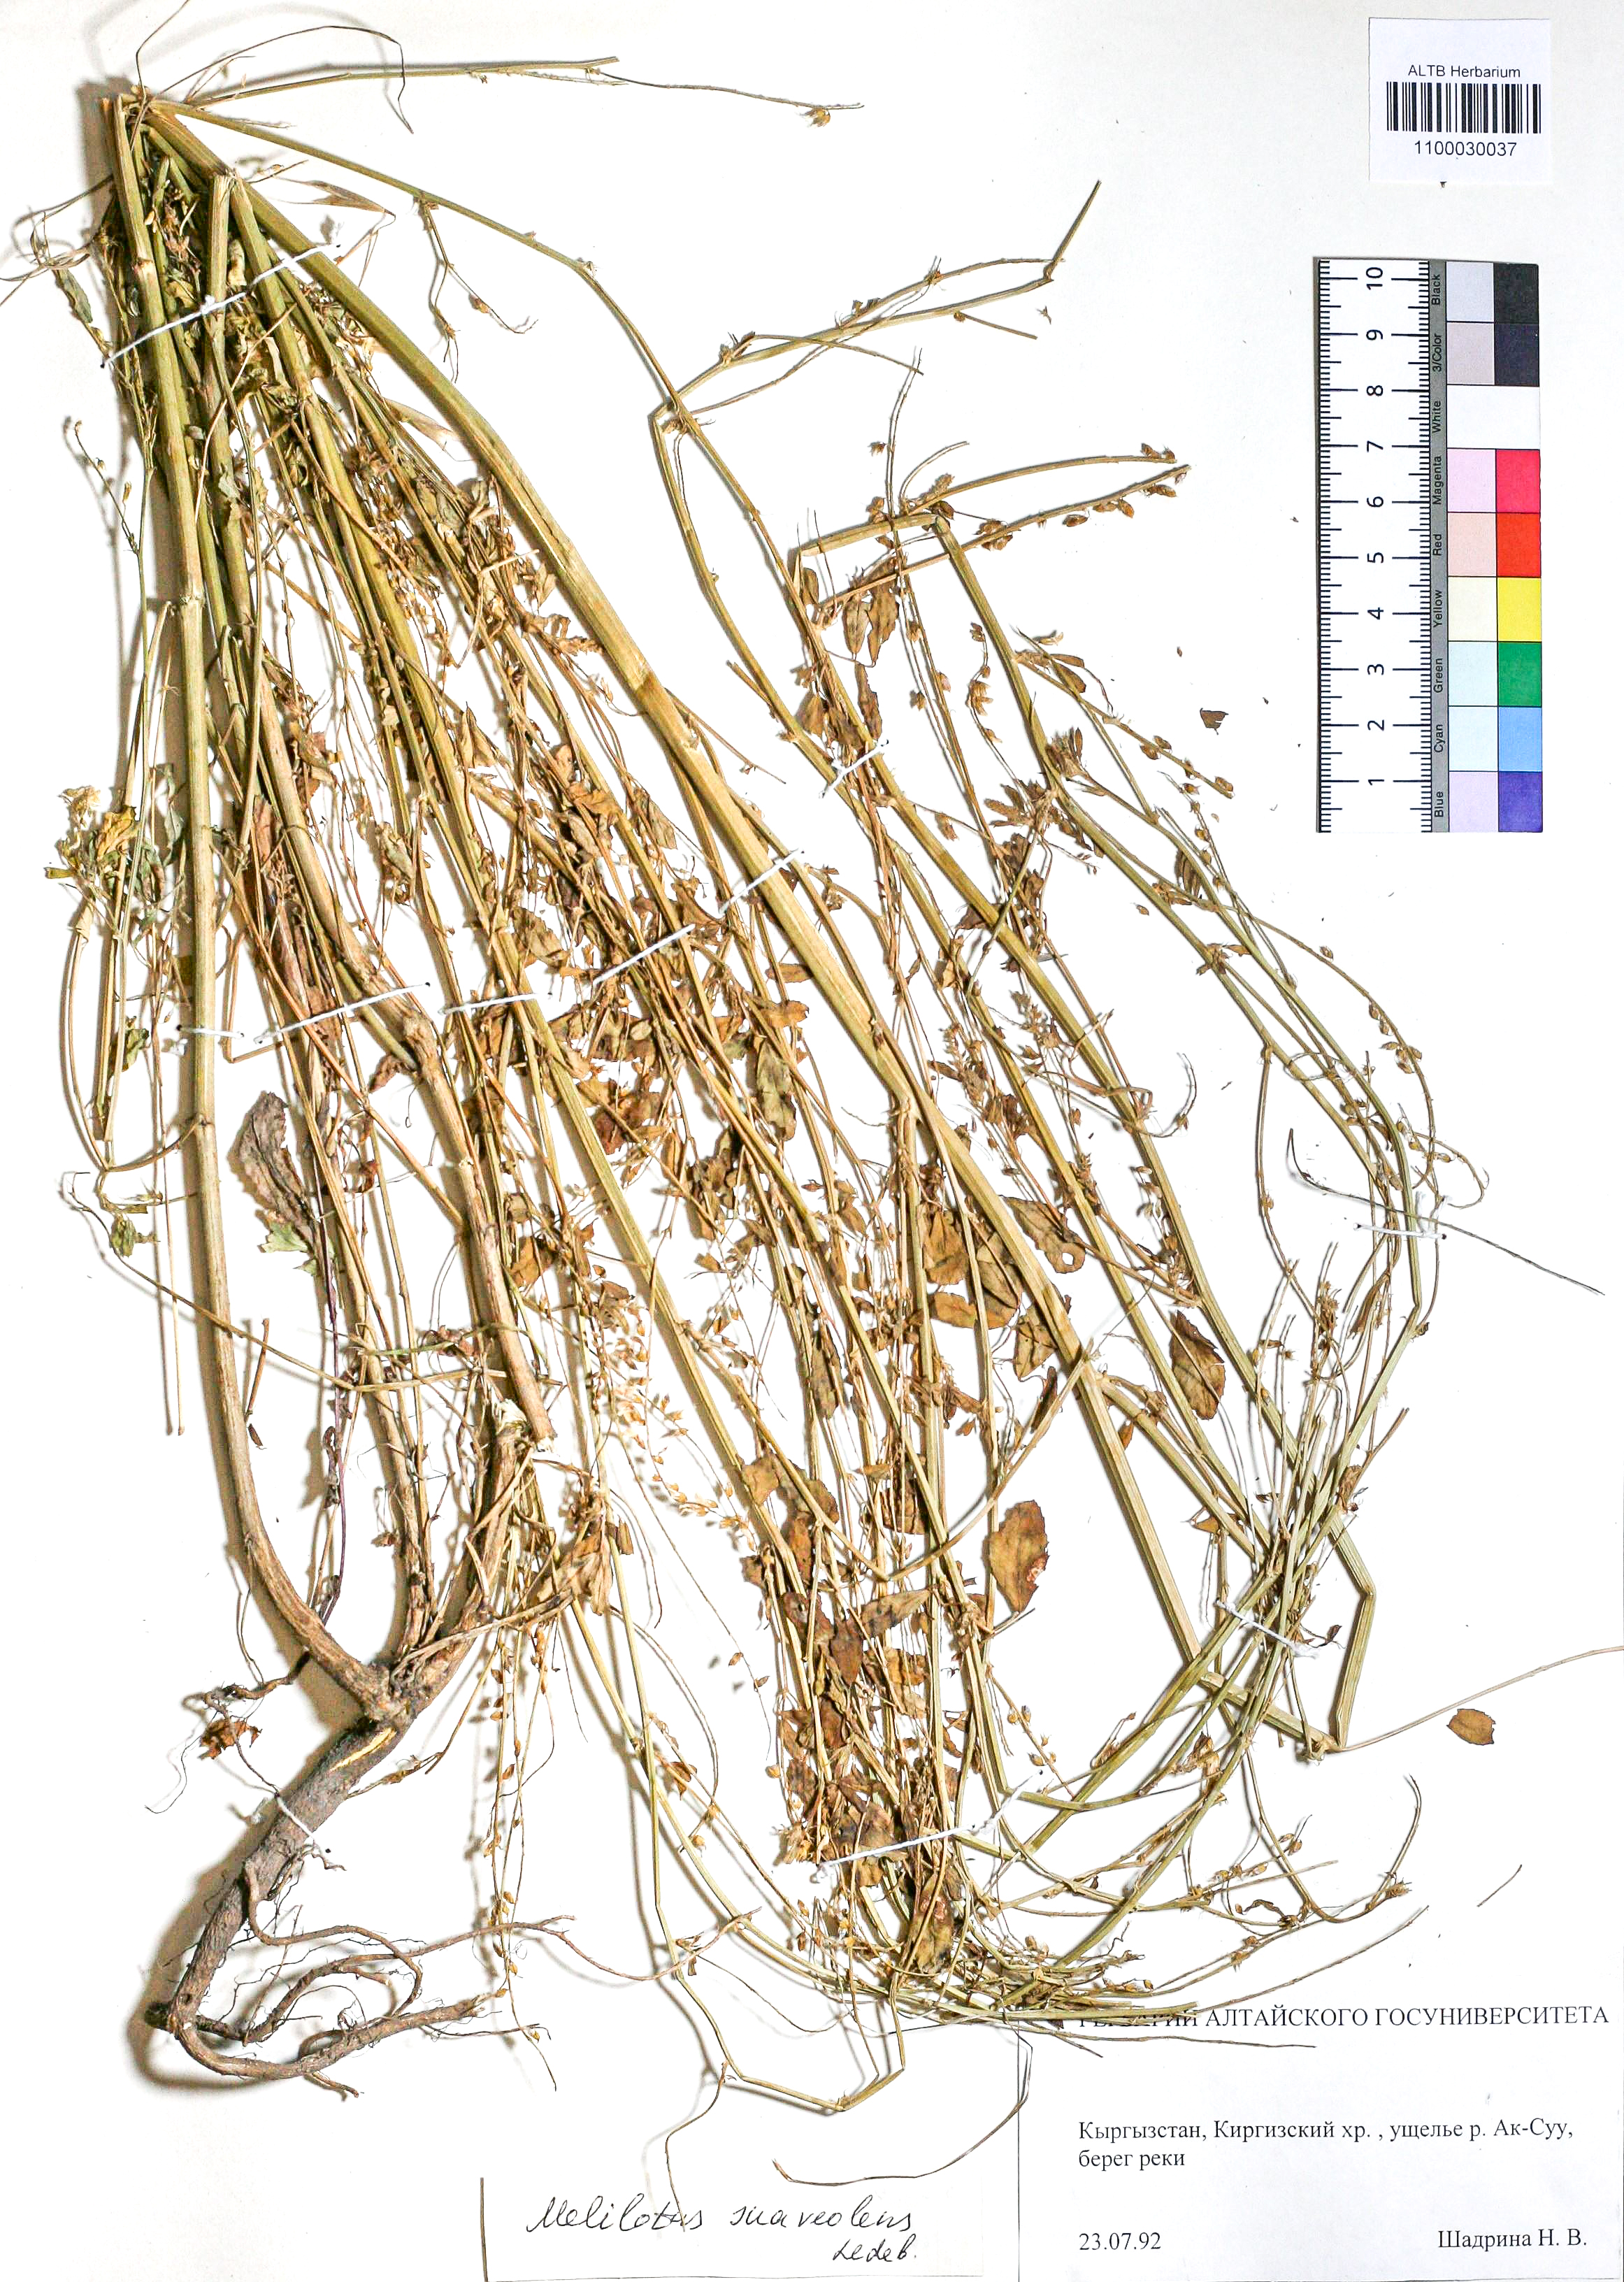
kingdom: Plantae
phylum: Tracheophyta
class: Magnoliopsida
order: Fabales
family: Fabaceae
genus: Melilotus
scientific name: Melilotus suaveolens
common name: Daghestan sweet-clover
